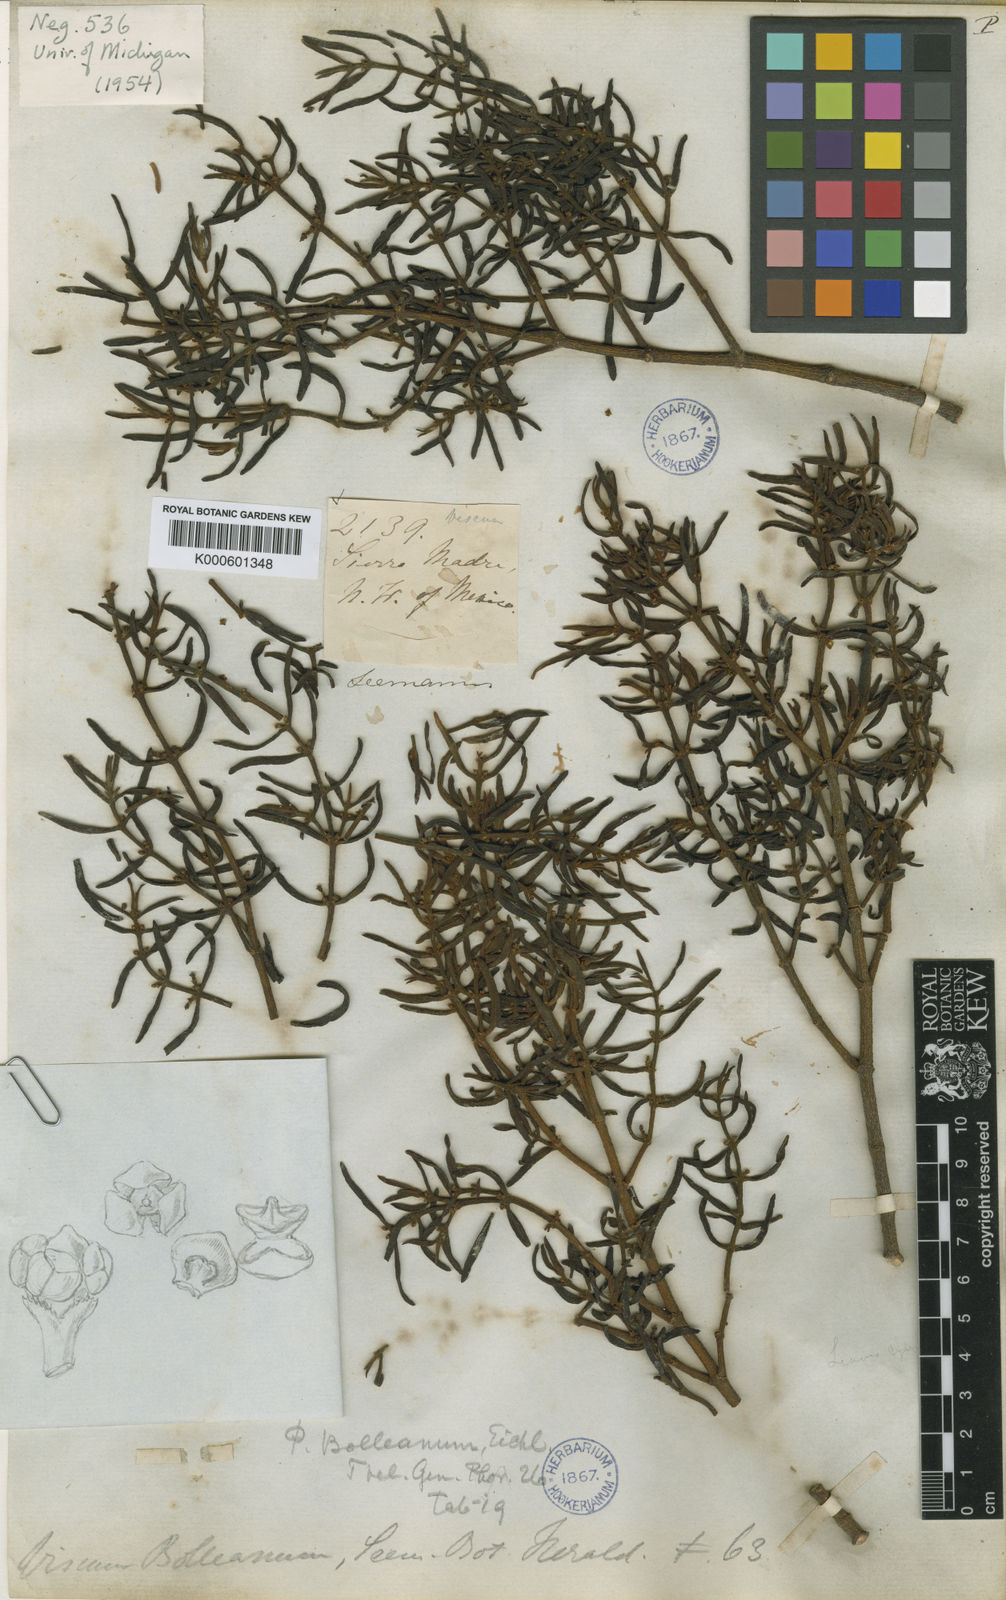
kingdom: Plantae
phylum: Tracheophyta
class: Magnoliopsida
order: Santalales
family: Viscaceae
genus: Phoradendron
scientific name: Phoradendron bolleanum
